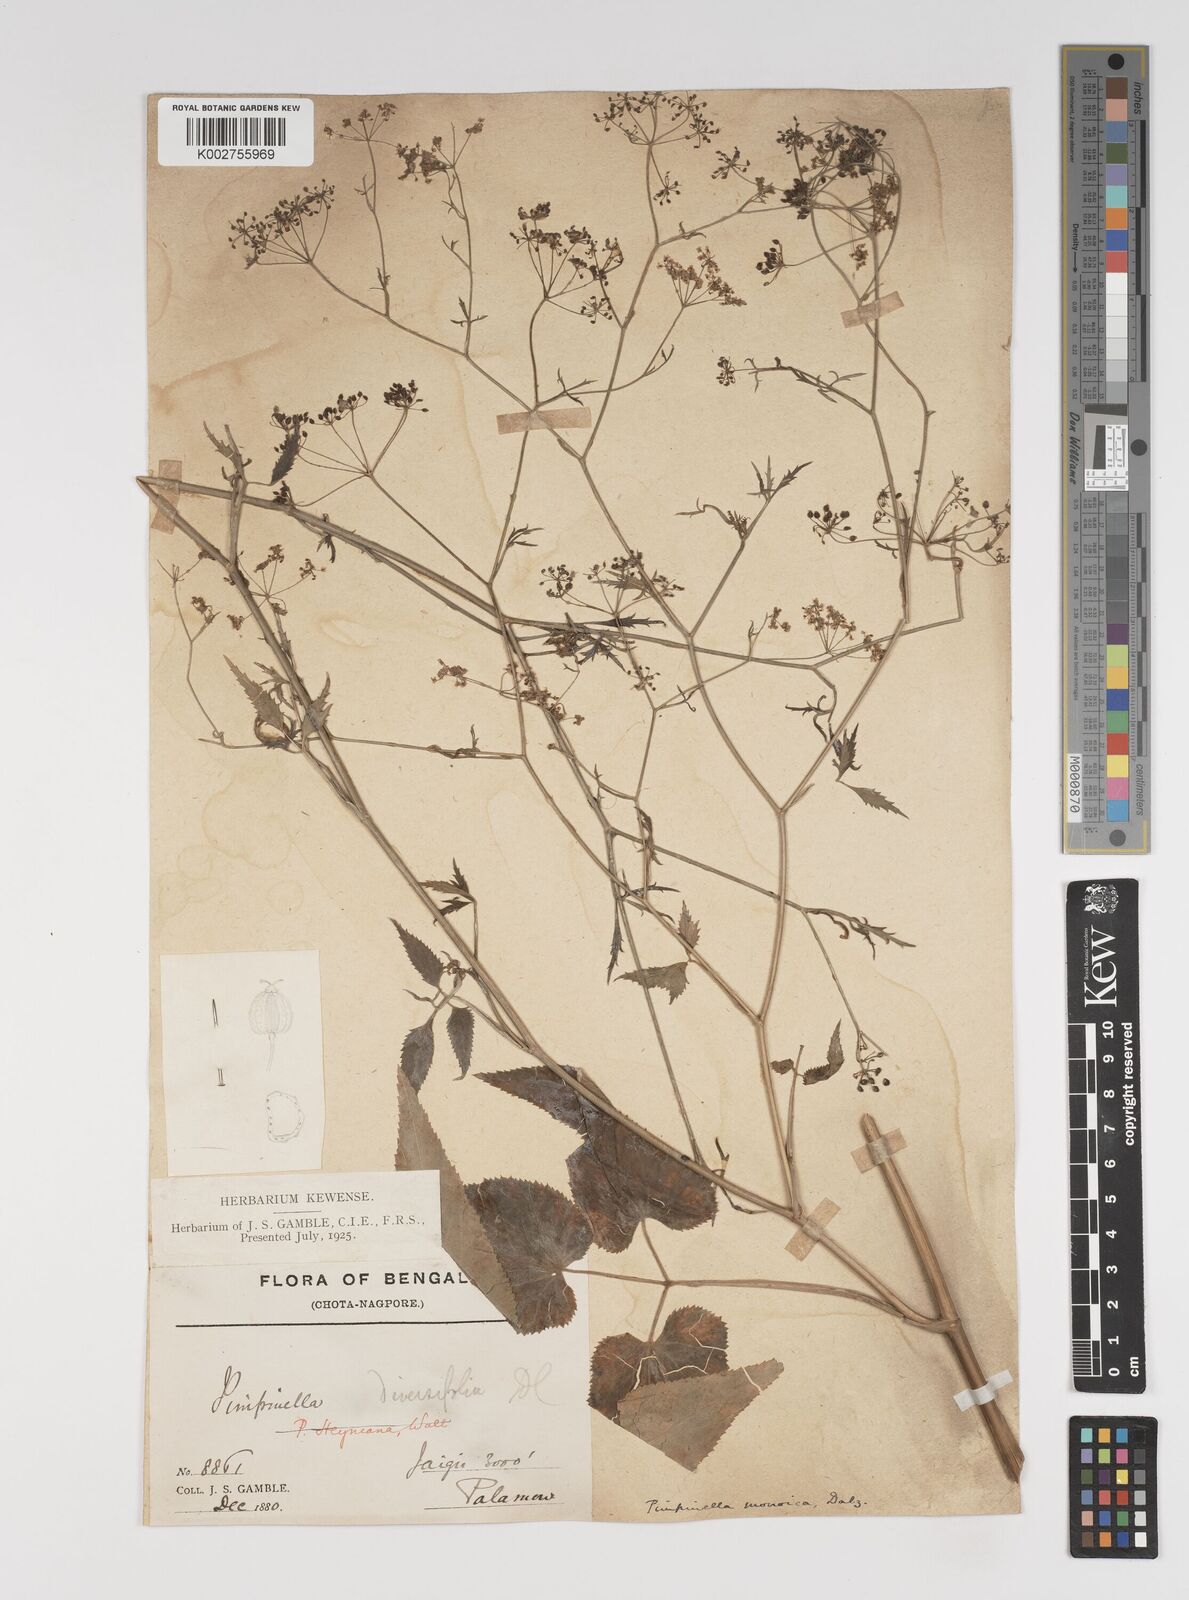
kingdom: Plantae
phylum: Tracheophyta
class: Magnoliopsida
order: Apiales
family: Apiaceae
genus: Pimpinella
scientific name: Pimpinella wallichiana
